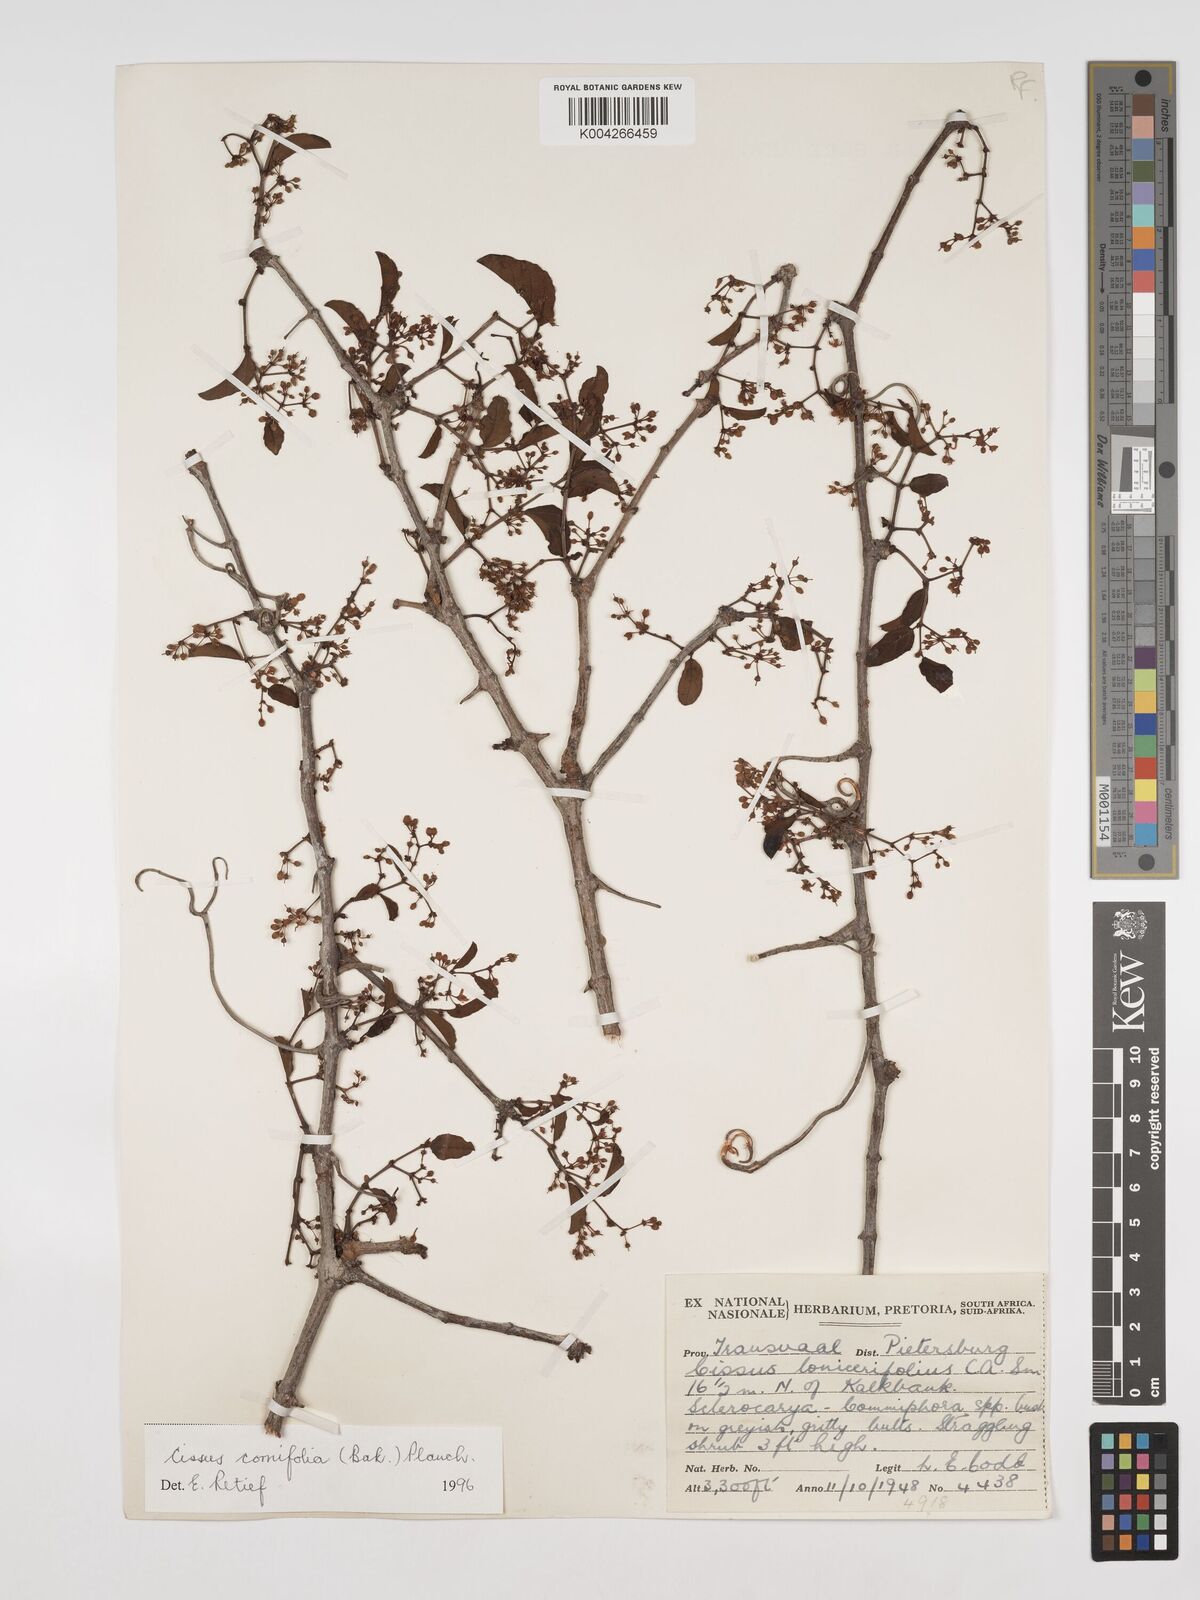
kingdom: Plantae
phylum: Tracheophyta
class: Magnoliopsida
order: Vitales
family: Vitaceae
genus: Cissus
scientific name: Cissus cornifolia
